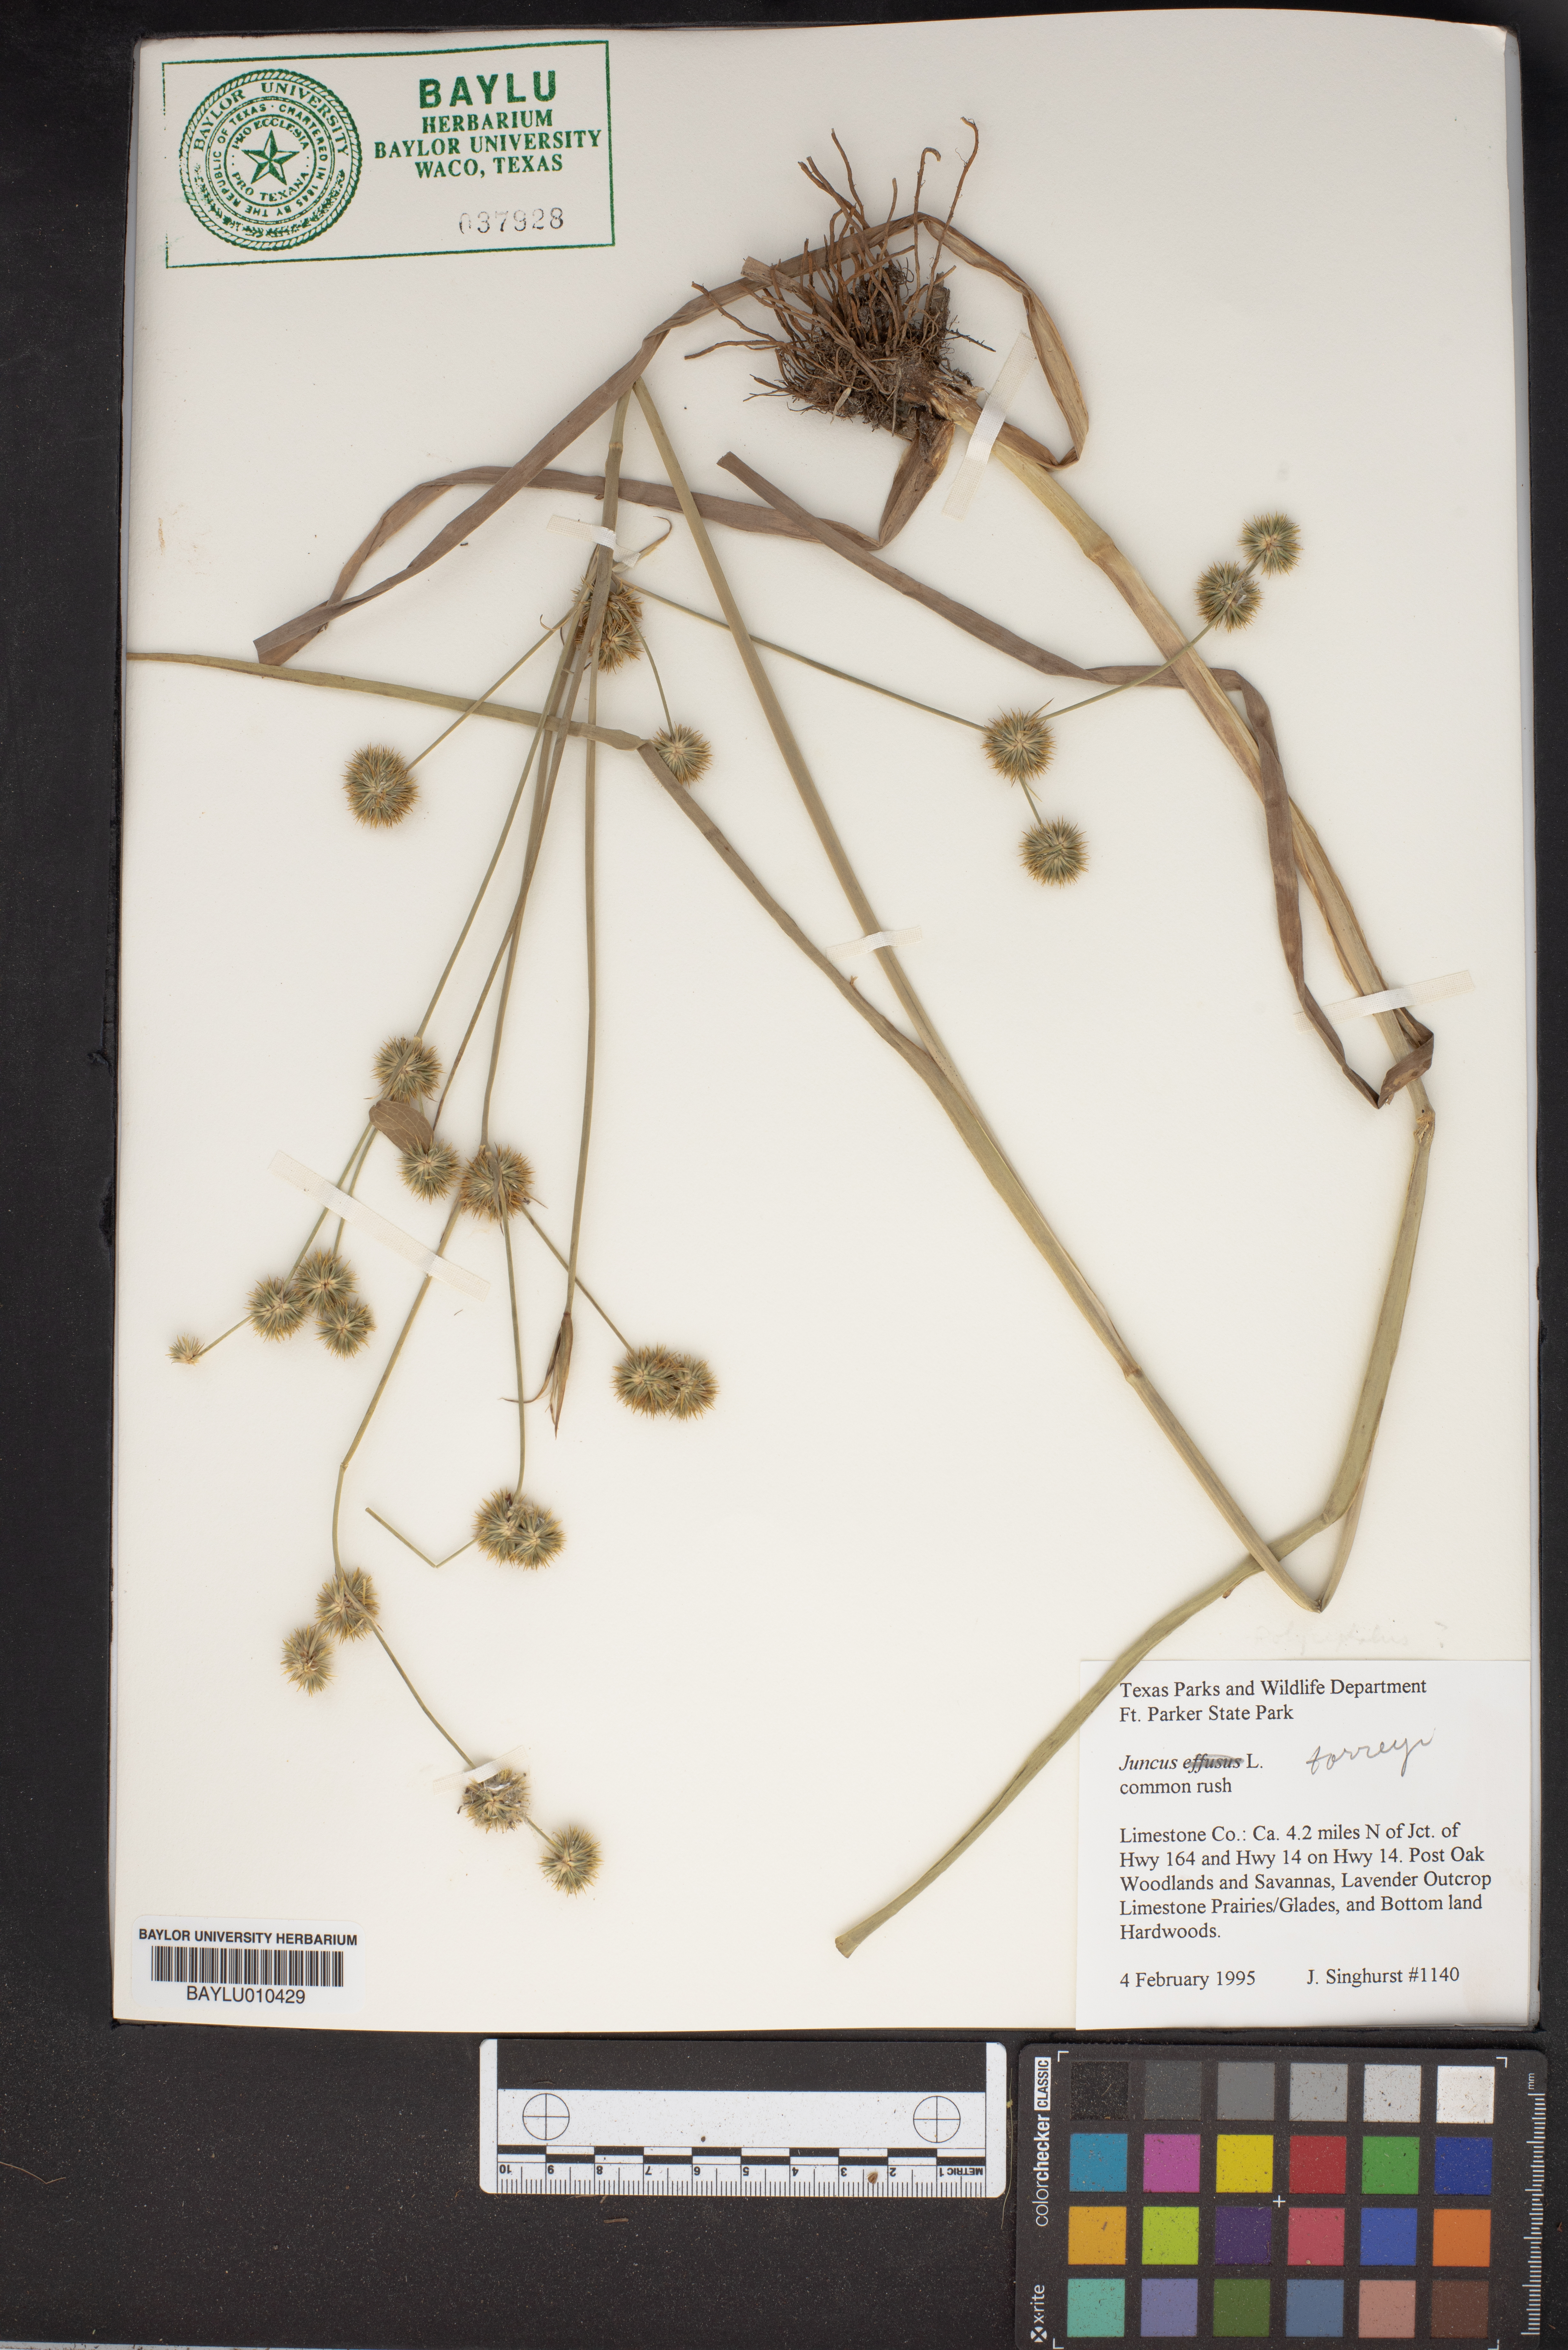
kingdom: Plantae
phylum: Tracheophyta
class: Liliopsida
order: Poales
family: Juncaceae
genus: Juncus
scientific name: Juncus torreyi
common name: Torrey's rush
